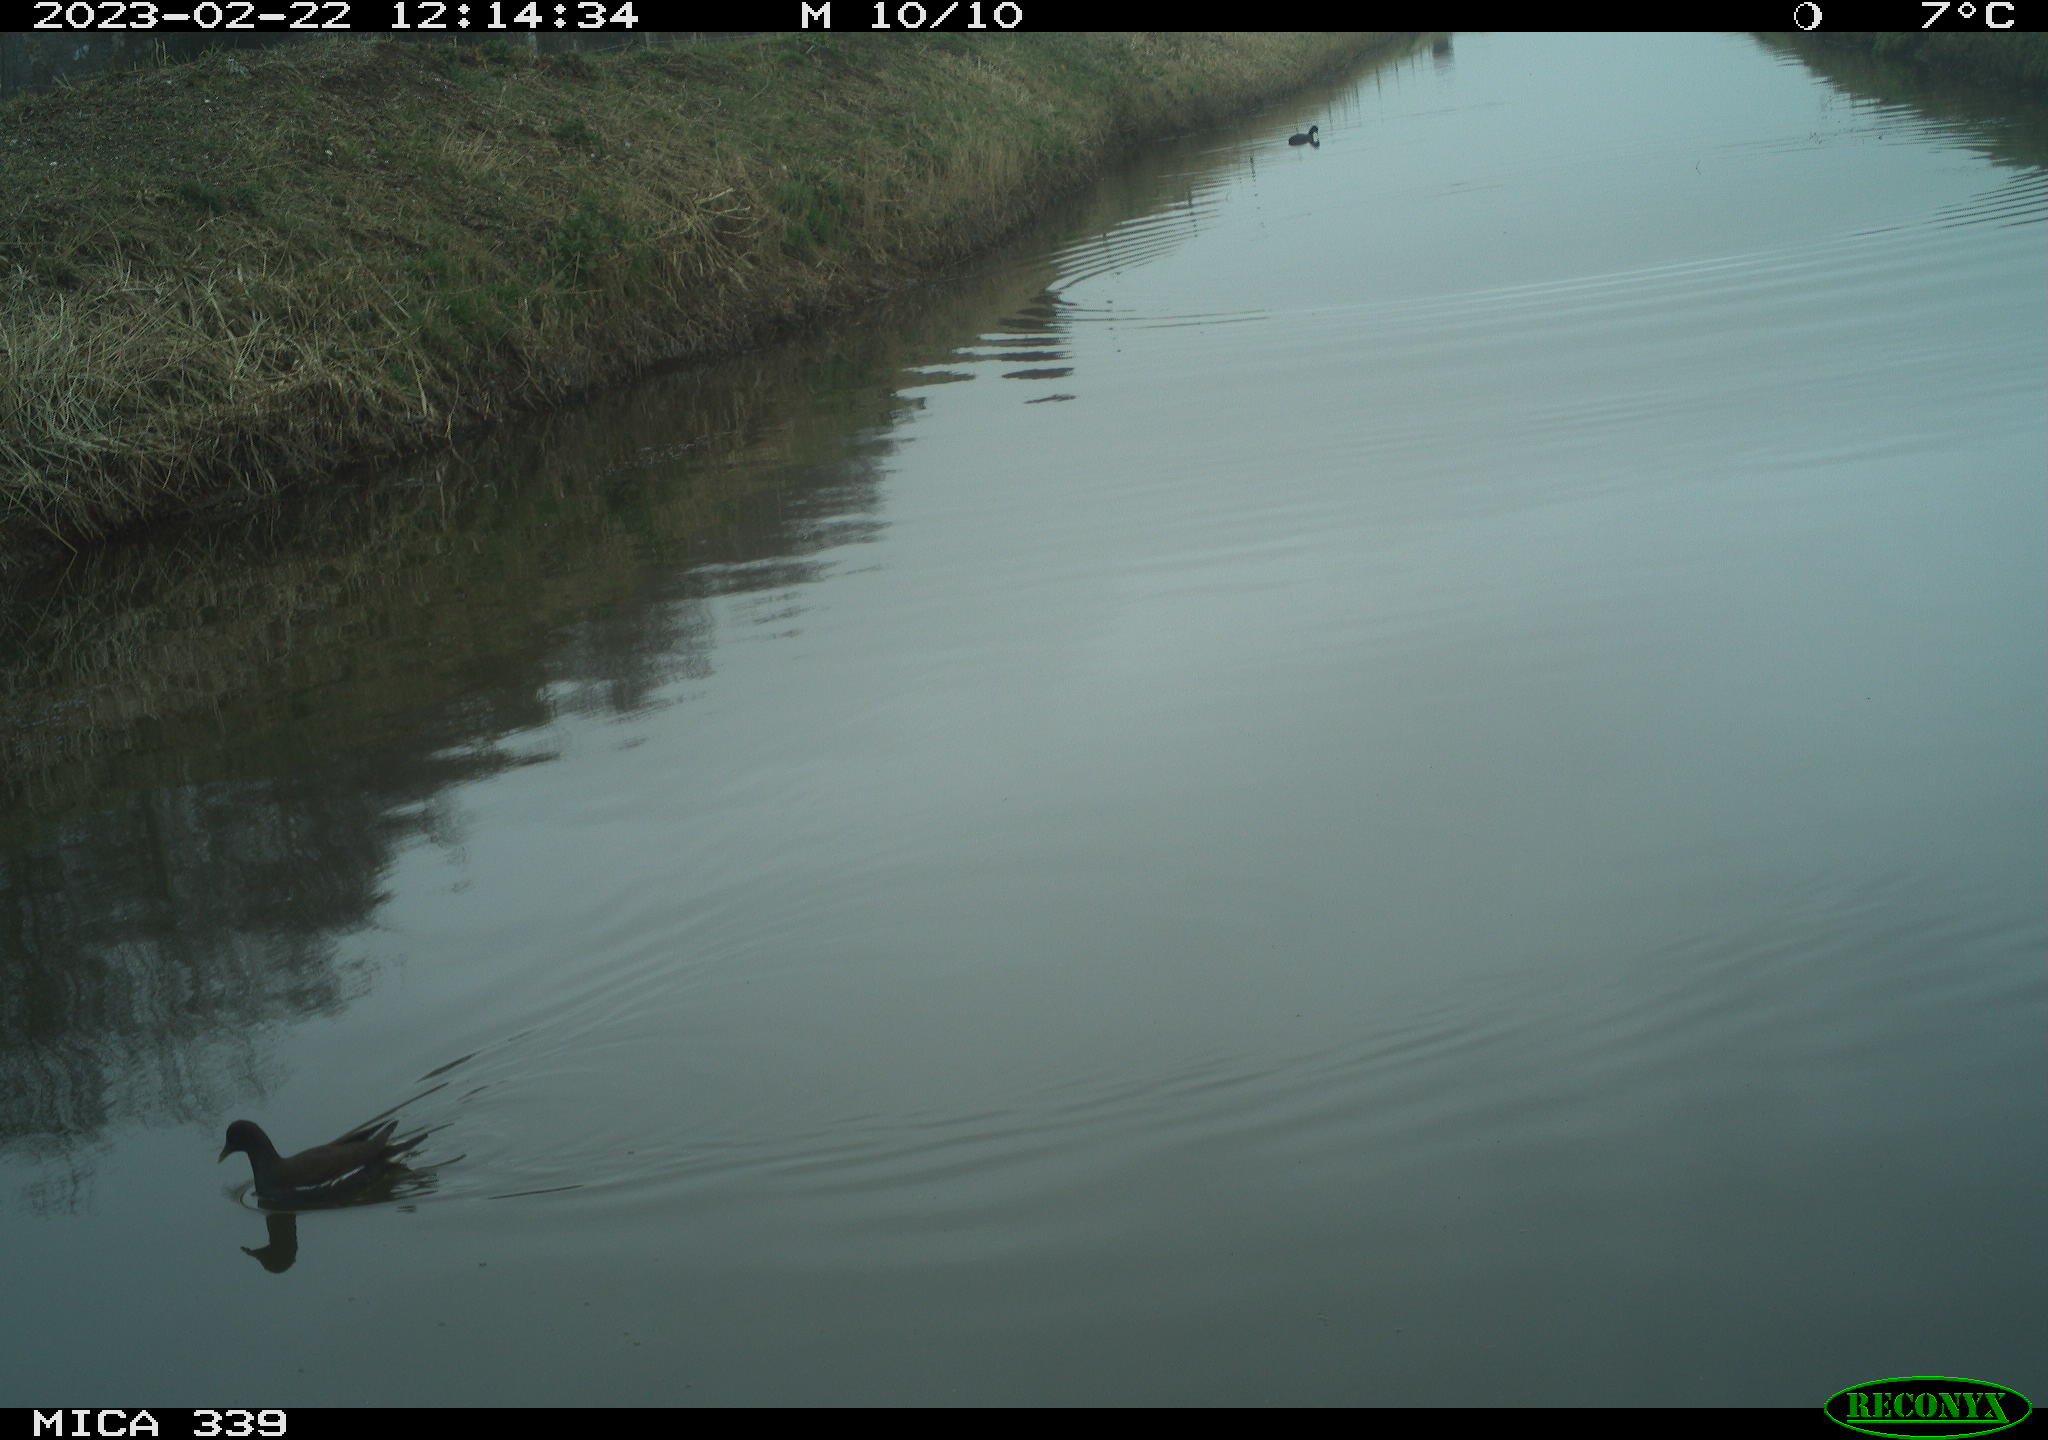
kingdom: Animalia
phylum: Chordata
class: Aves
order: Gruiformes
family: Rallidae
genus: Gallinula
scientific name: Gallinula chloropus
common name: Common moorhen
